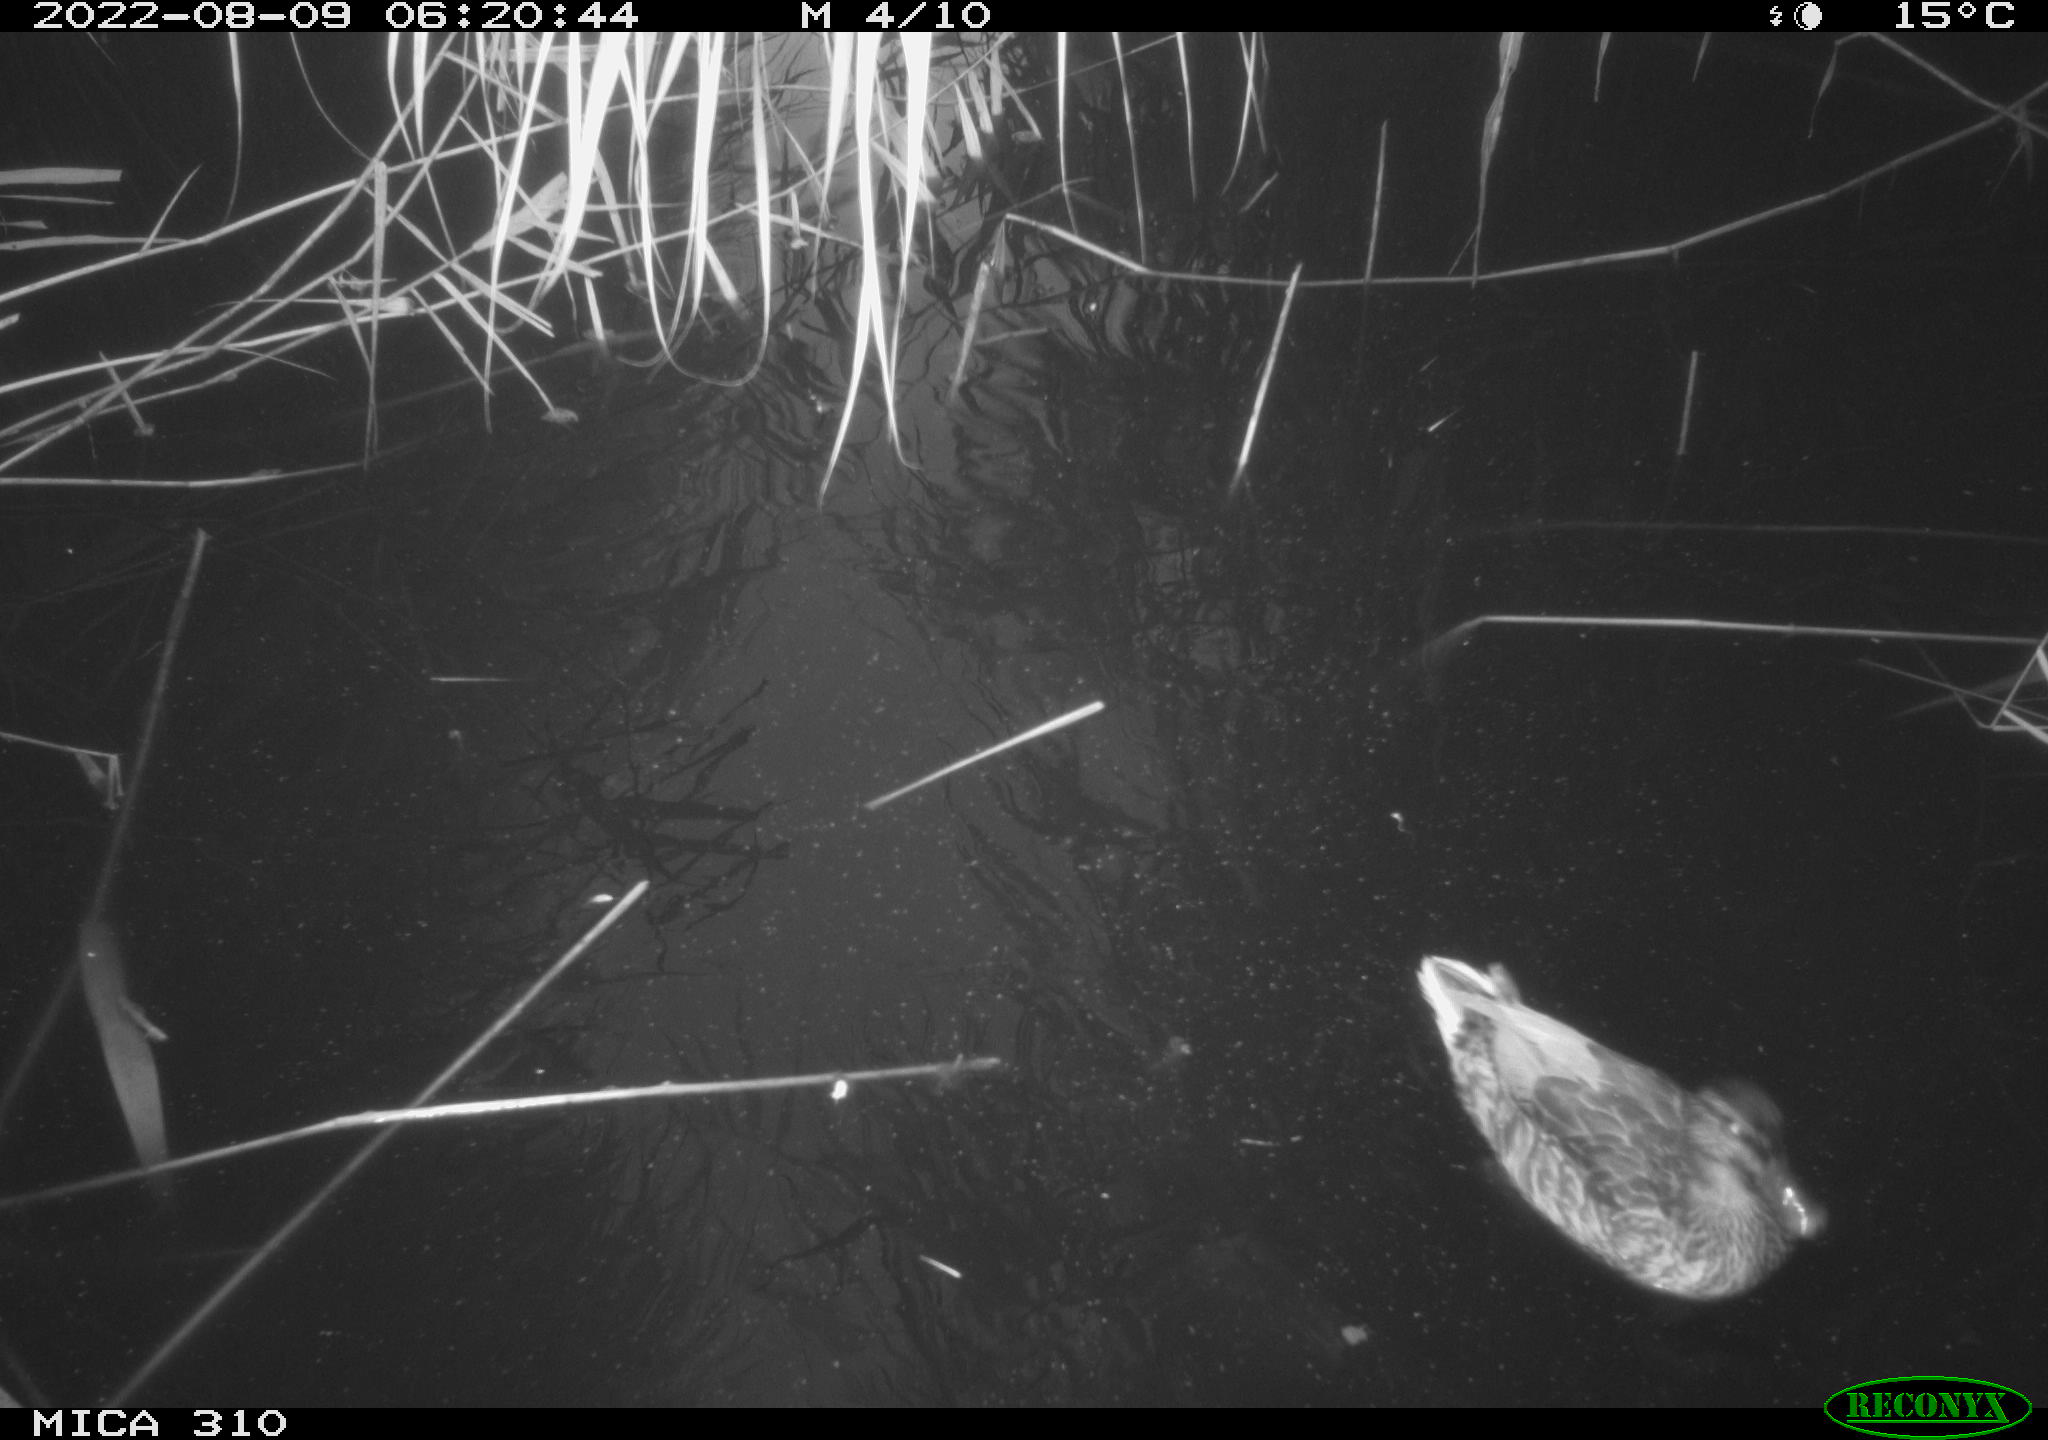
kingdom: Animalia
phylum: Chordata
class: Aves
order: Anseriformes
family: Anatidae
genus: Mareca
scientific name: Mareca strepera
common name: Gadwall
